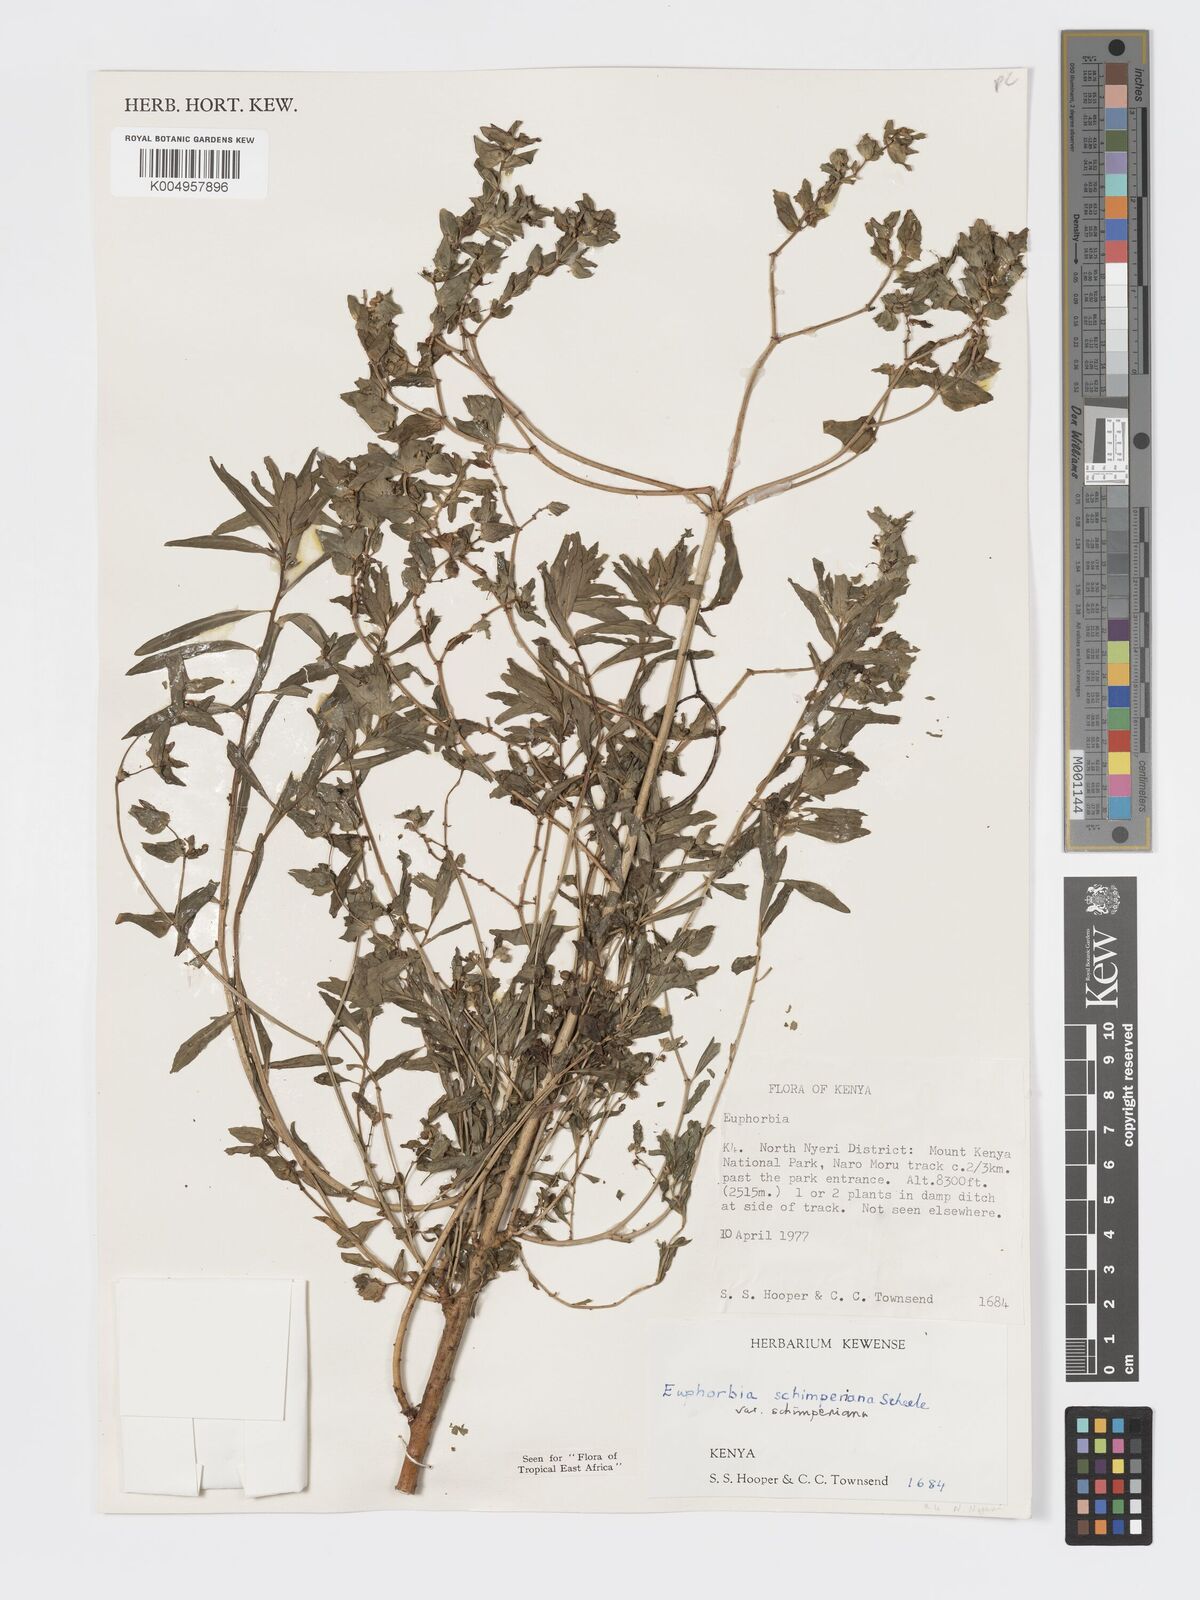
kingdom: Plantae
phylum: Tracheophyta
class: Magnoliopsida
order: Malpighiales
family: Euphorbiaceae
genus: Euphorbia
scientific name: Euphorbia schimperiana
